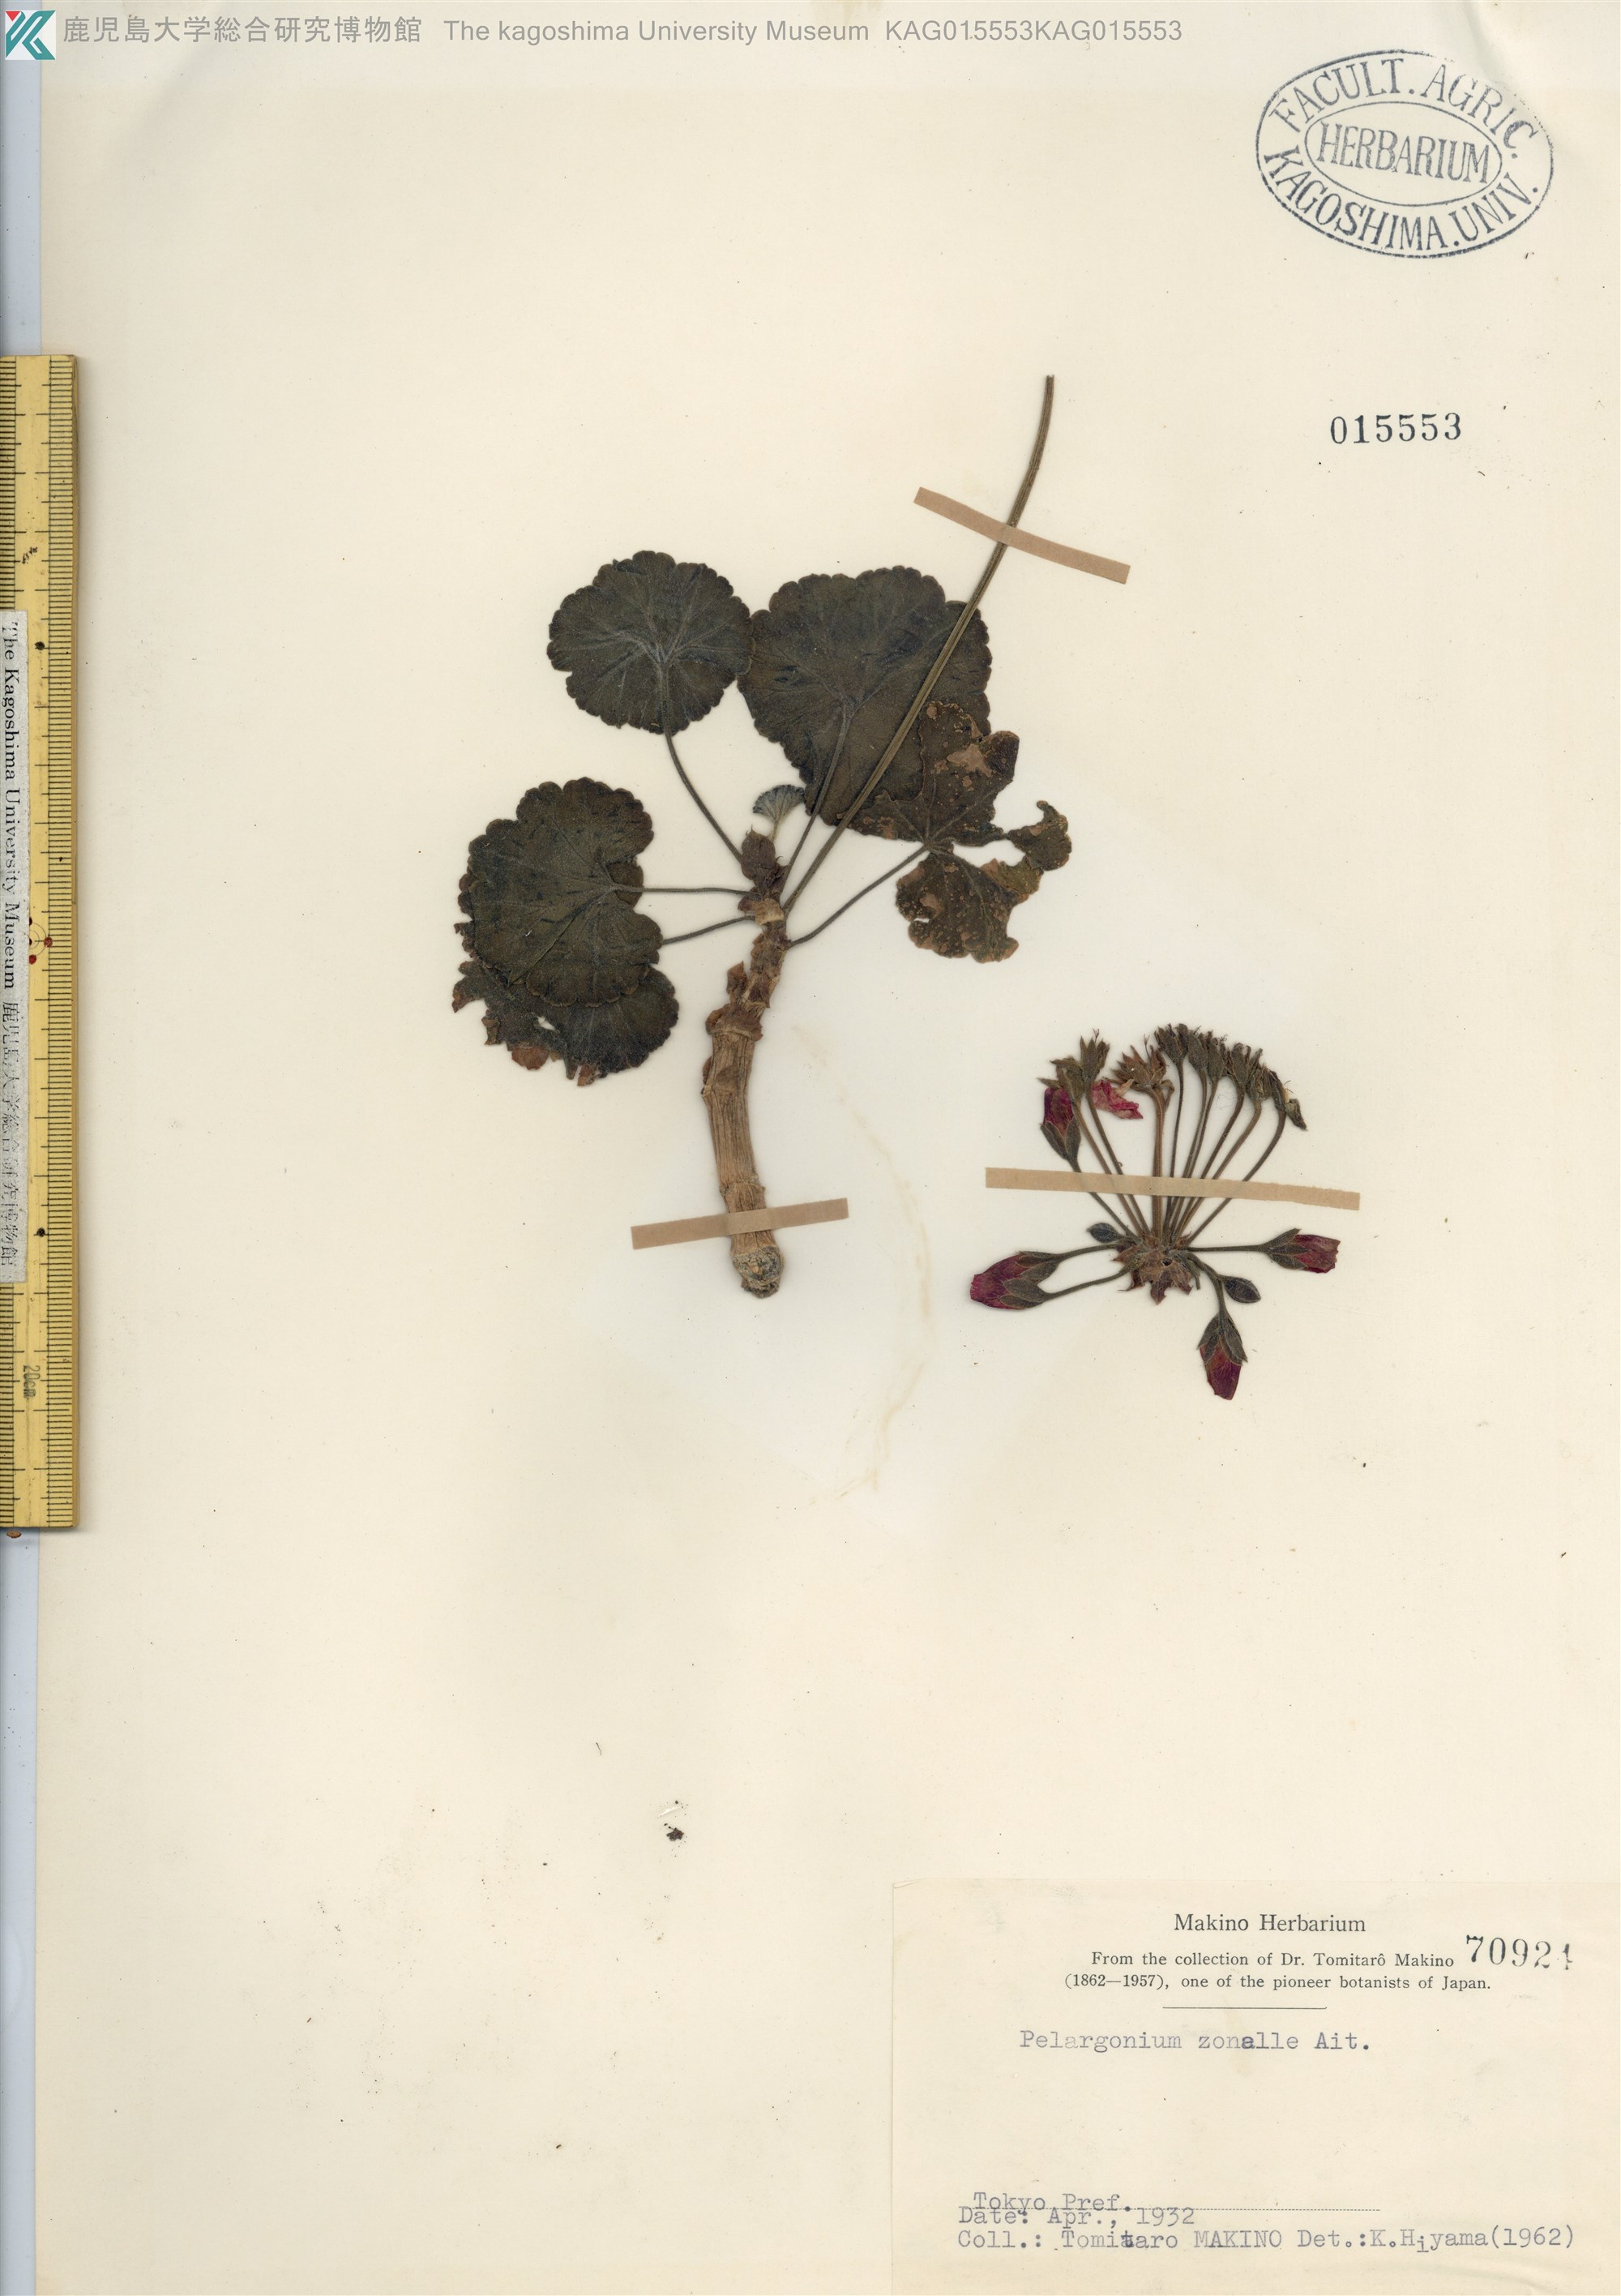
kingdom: Plantae
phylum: Tracheophyta
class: Magnoliopsida
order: Geraniales
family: Geraniaceae
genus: Pelargonium
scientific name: Pelargonium zonale
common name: Horseshoe geranium
